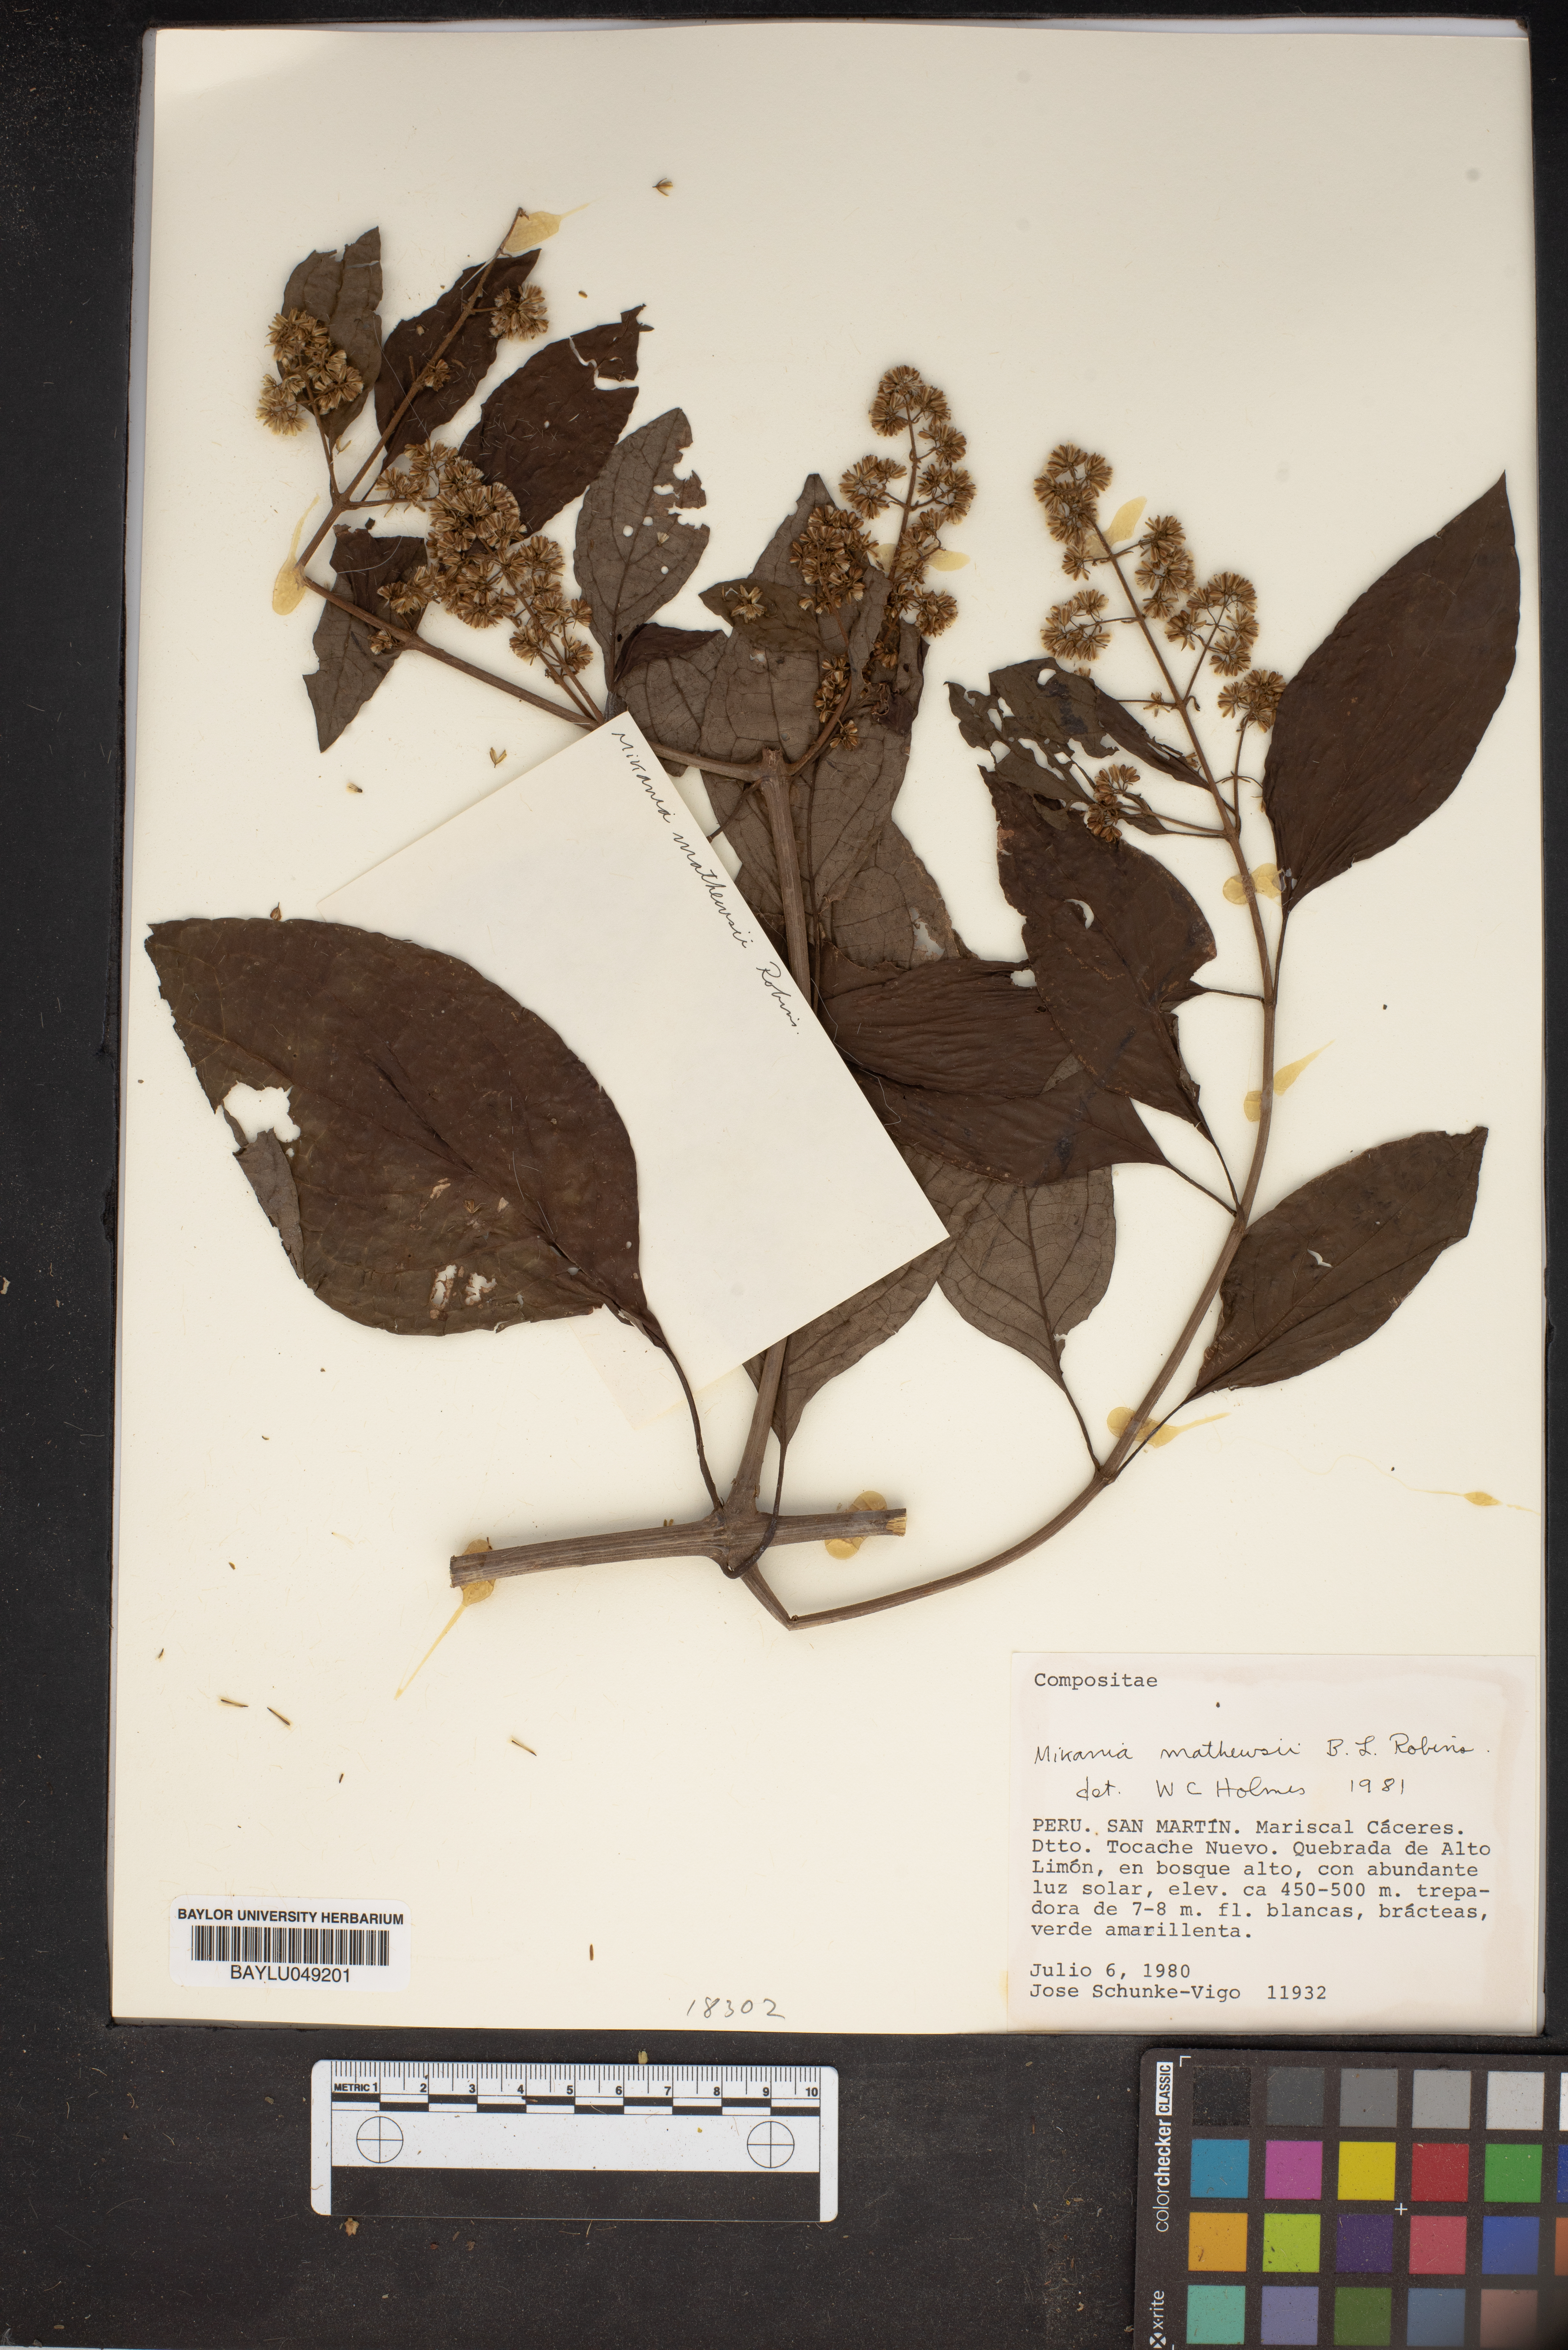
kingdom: Plantae
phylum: Tracheophyta
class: Magnoliopsida
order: Asterales
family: Asteraceae
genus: Mikania
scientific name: Mikania mathewsii
